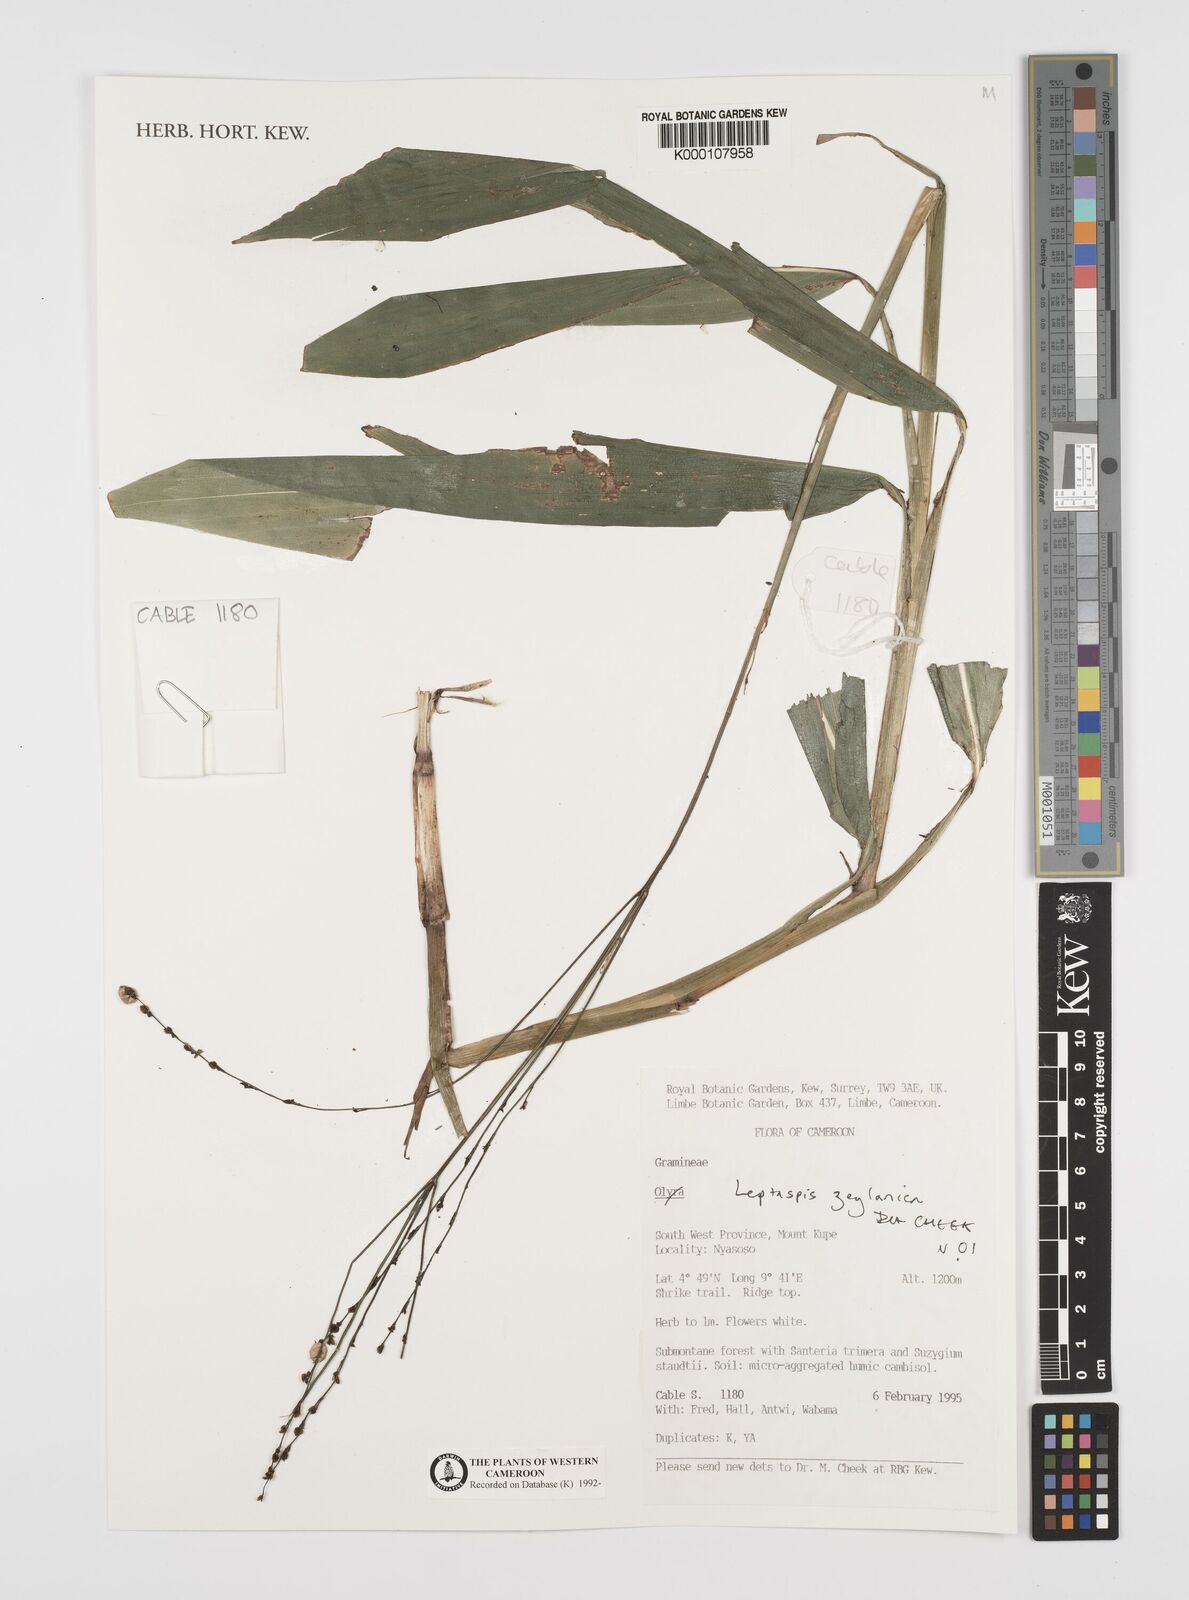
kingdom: Plantae
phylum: Tracheophyta
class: Liliopsida
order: Poales
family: Poaceae
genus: Leptaspis
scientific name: Leptaspis zeylanica
